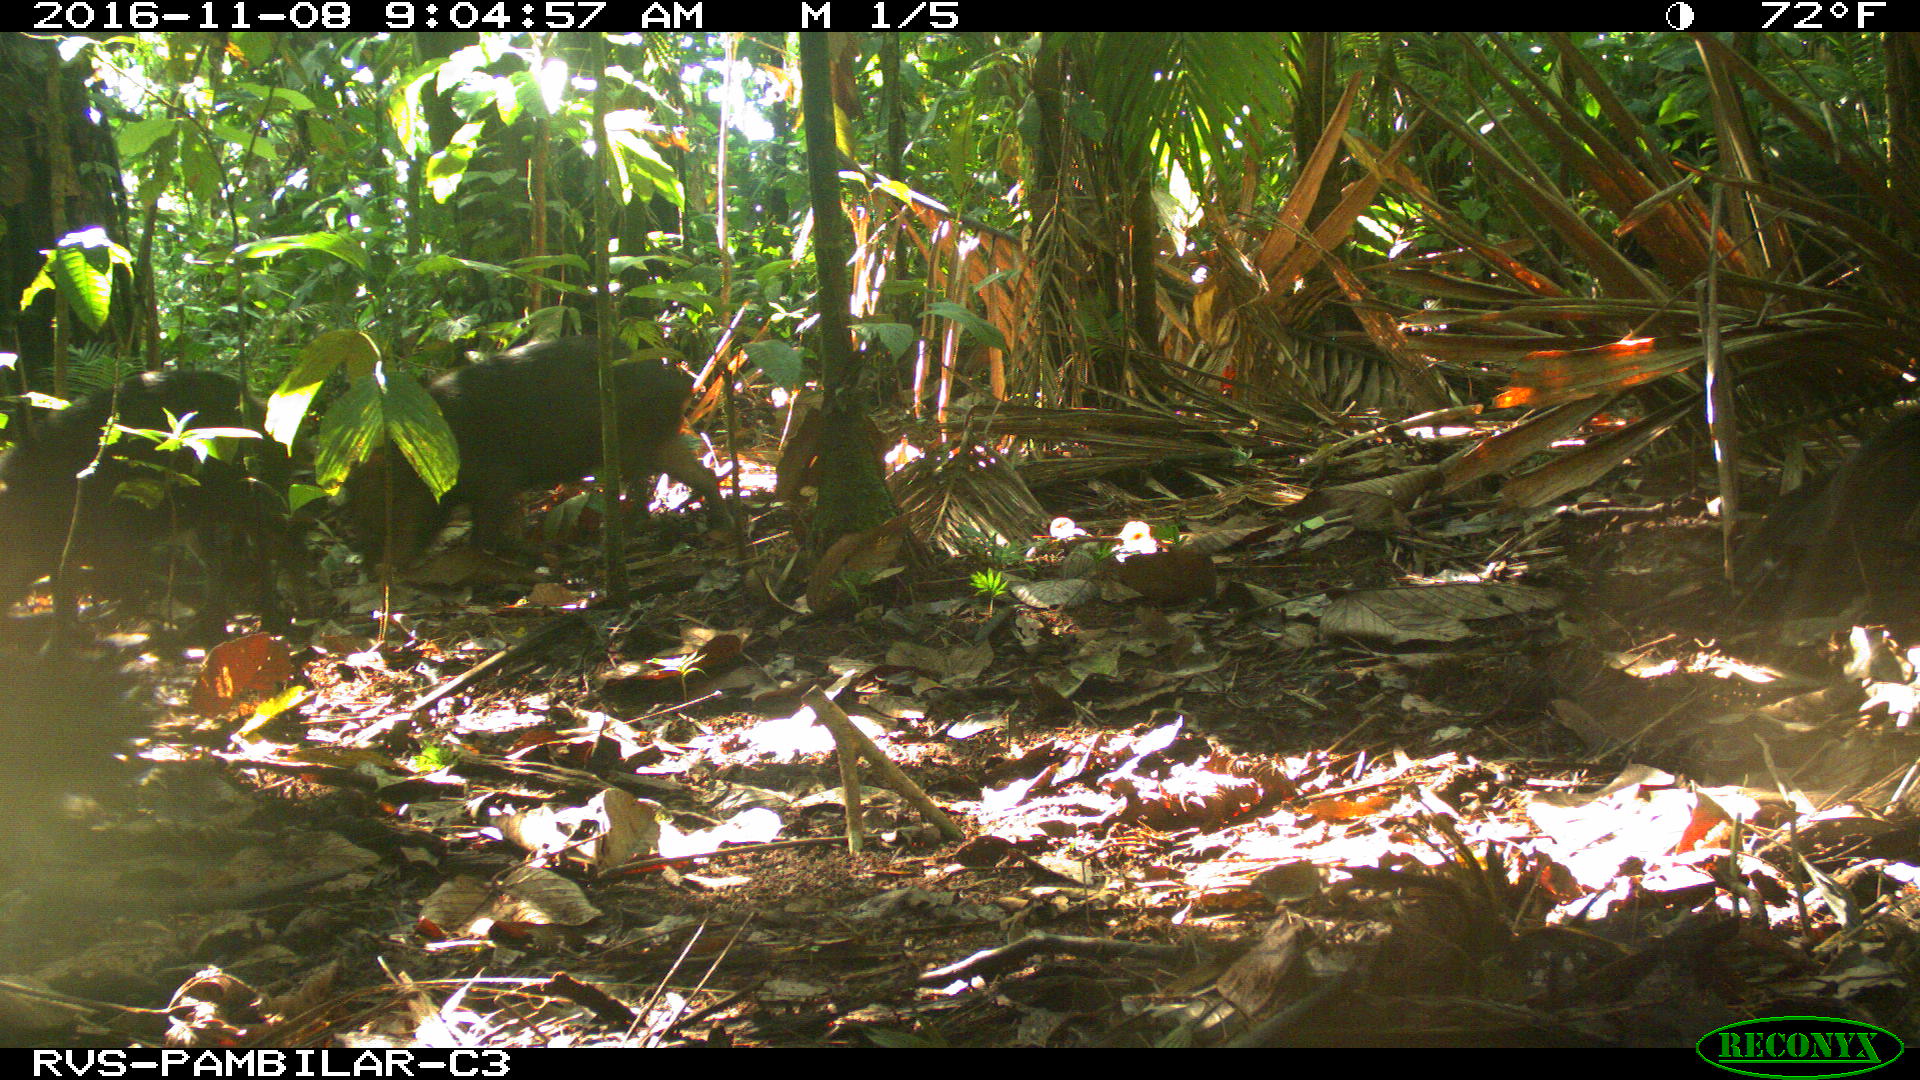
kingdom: Animalia
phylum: Chordata
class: Mammalia
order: Artiodactyla
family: Tayassuidae
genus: Tayassu
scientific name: Tayassu pecari
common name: White-lipped peccary
